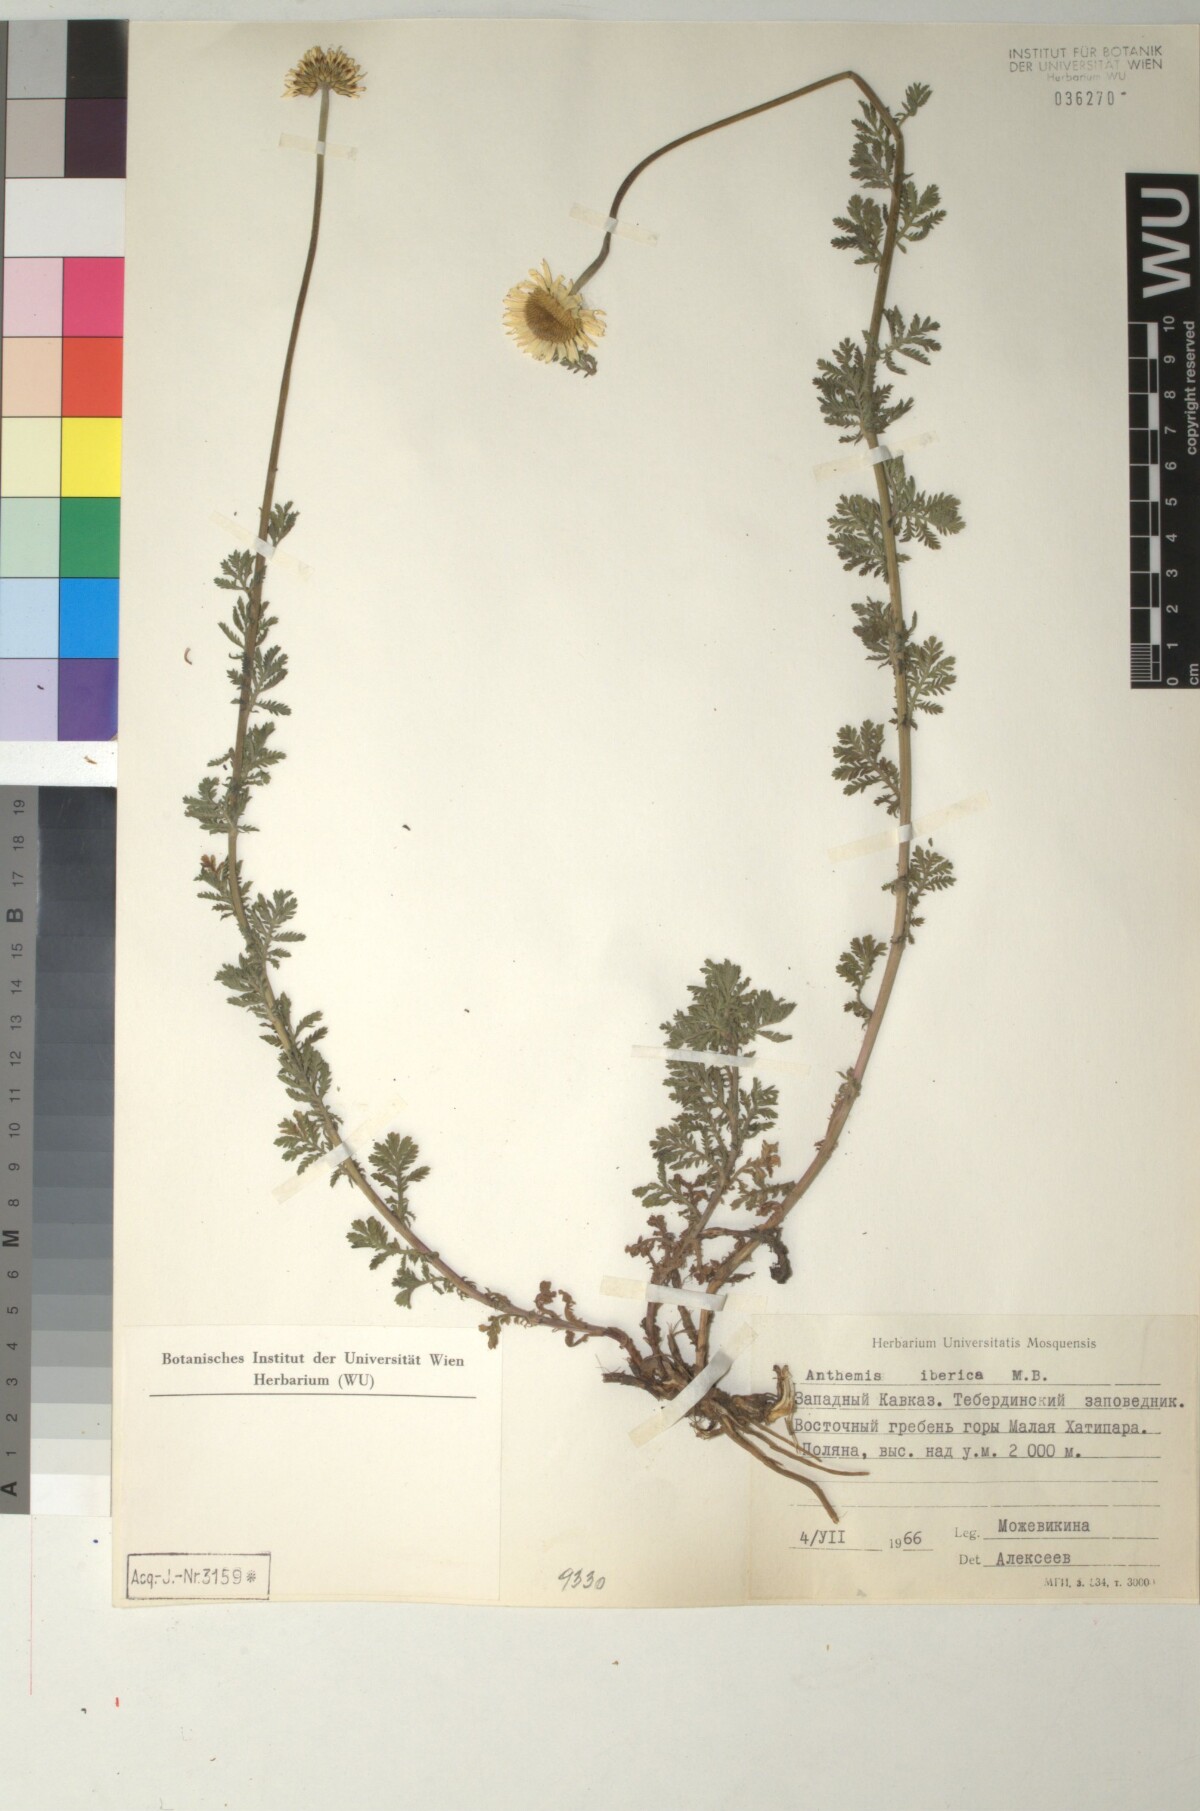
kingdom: Plantae
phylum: Tracheophyta
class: Magnoliopsida
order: Asterales
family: Asteraceae
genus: Anthemis
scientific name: Anthemis cretica
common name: Mountain dog-daisy
